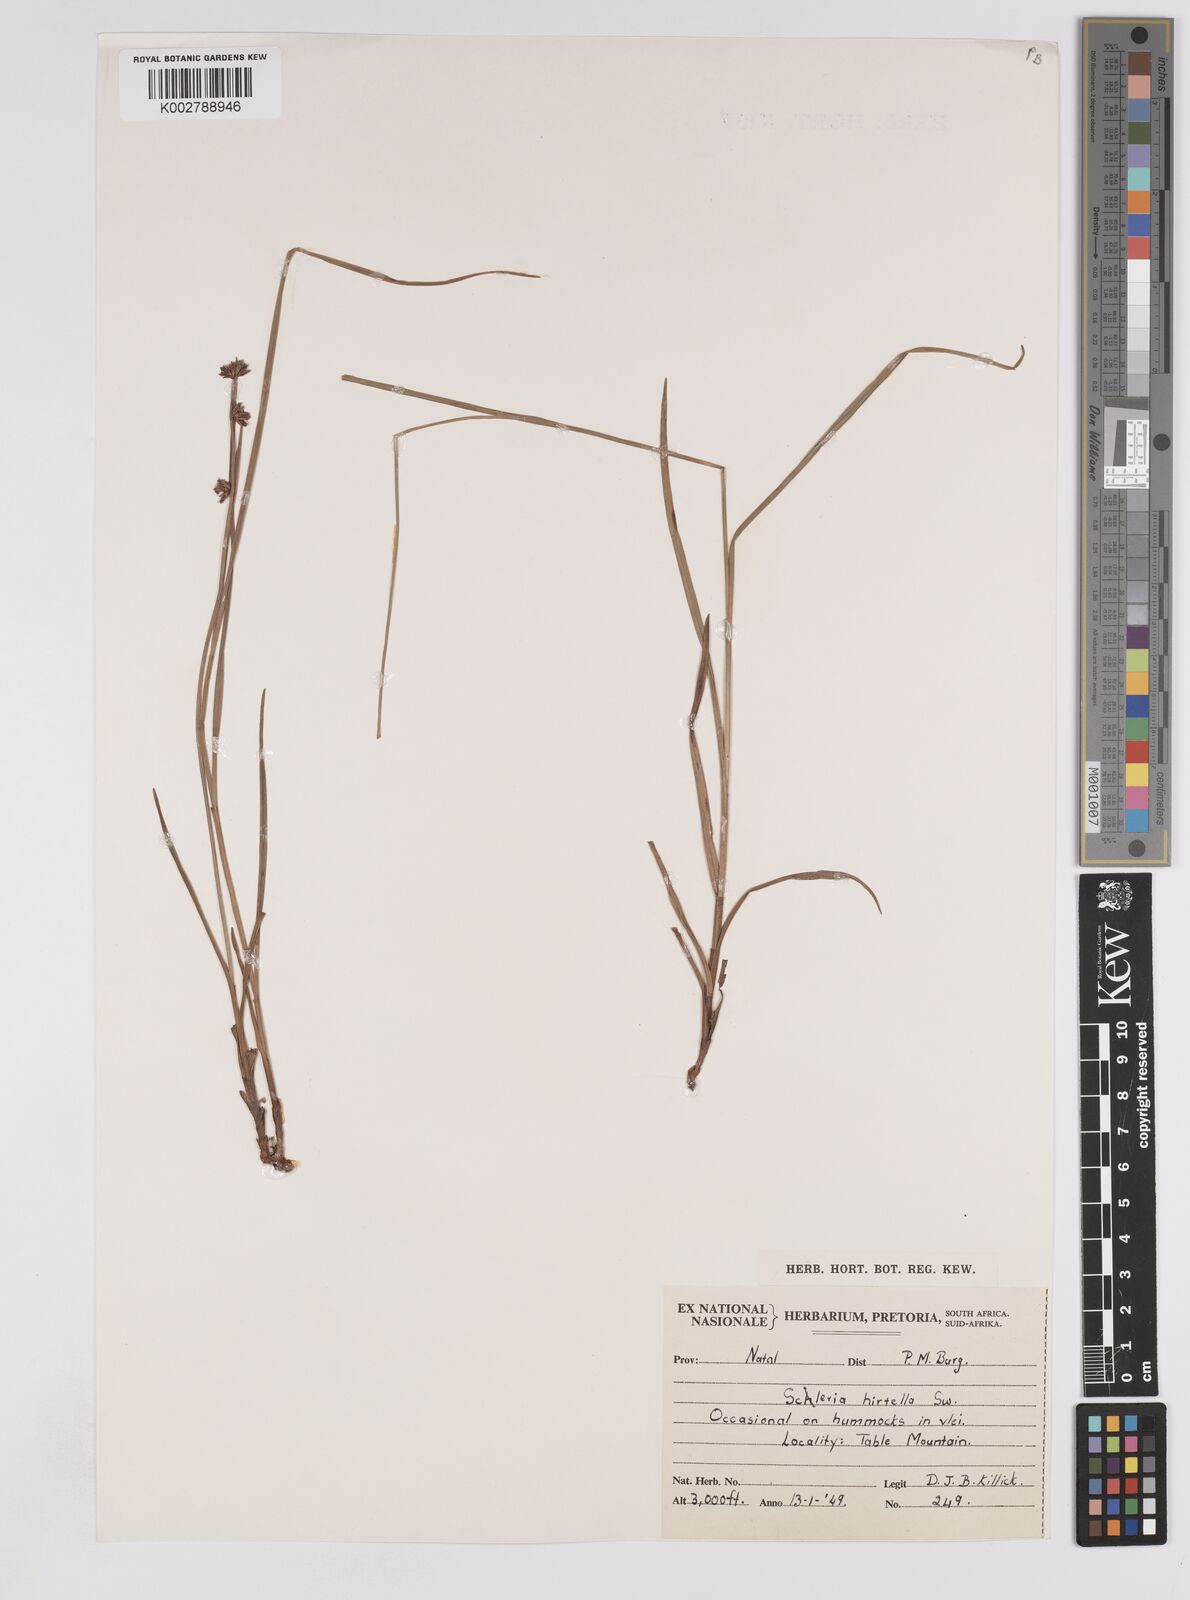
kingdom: Plantae
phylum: Tracheophyta
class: Liliopsida
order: Poales
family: Cyperaceae
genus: Scleria
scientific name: Scleria hirtella
